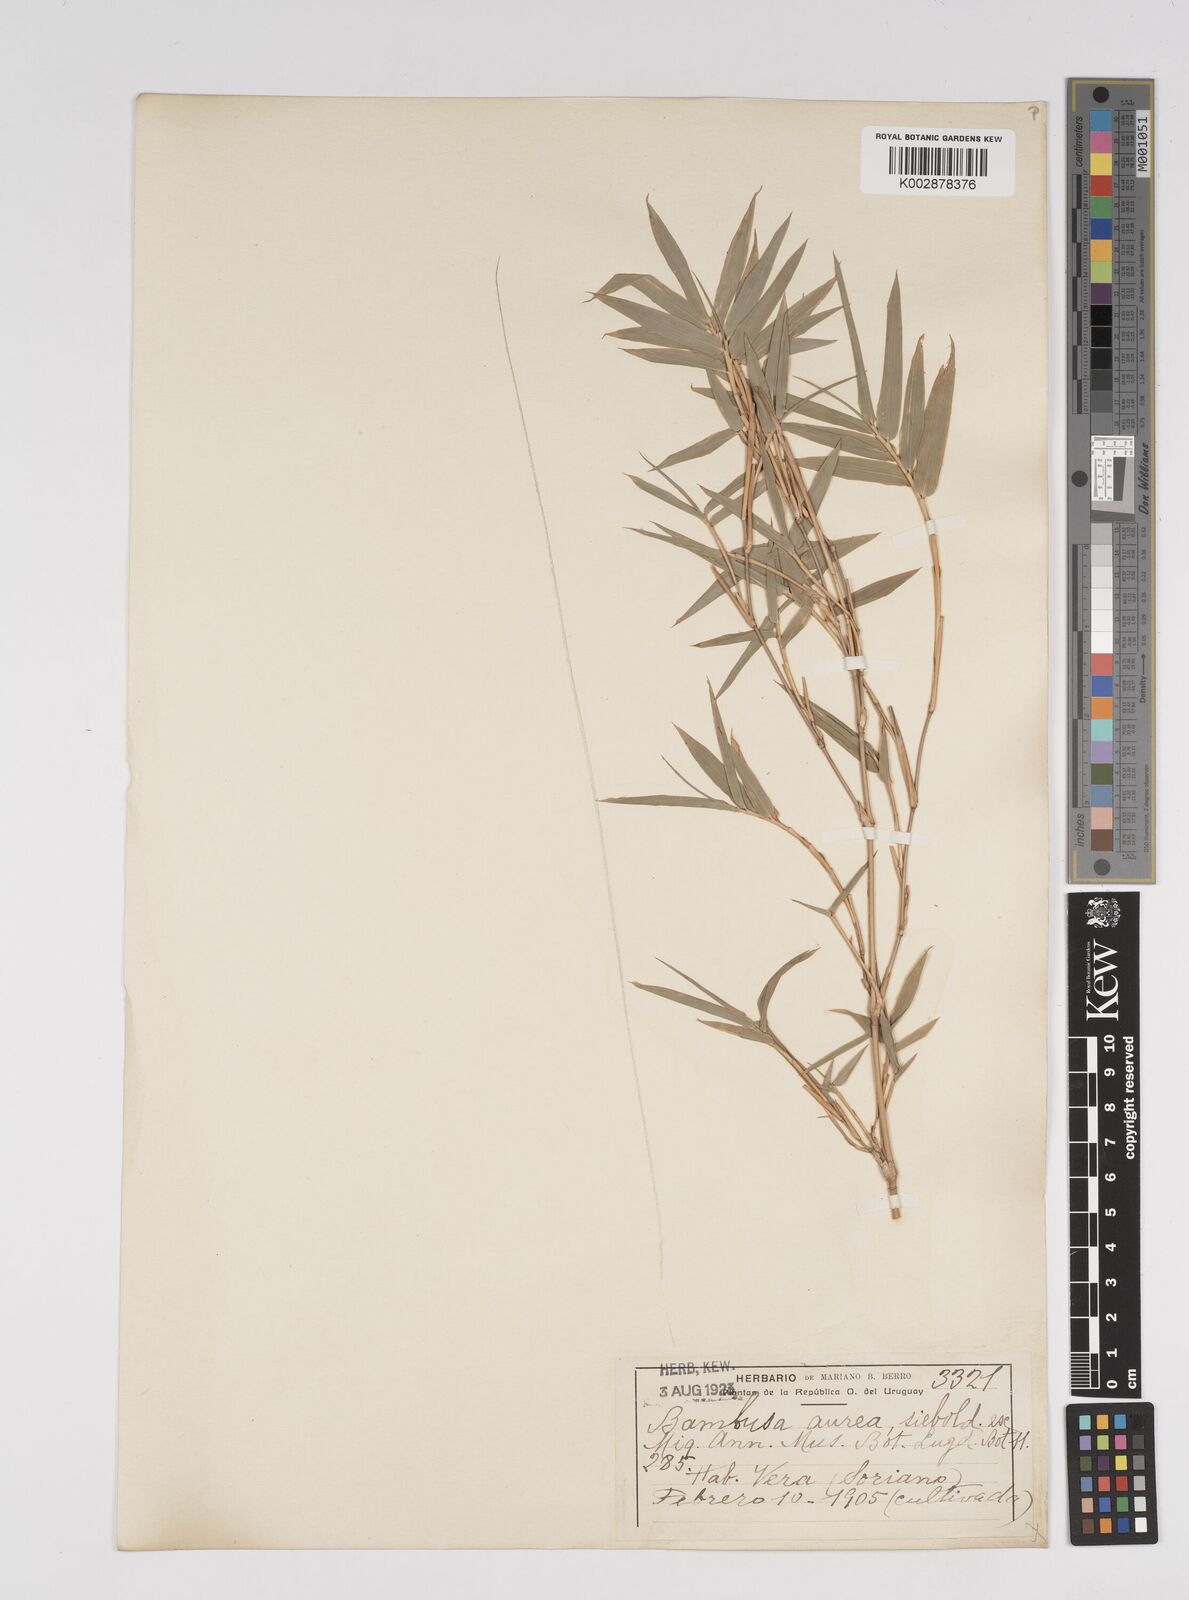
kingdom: Plantae
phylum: Tracheophyta
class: Liliopsida
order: Poales
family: Poaceae
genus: Bambusa
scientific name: Bambusa multiplex
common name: Hedge bamboo
